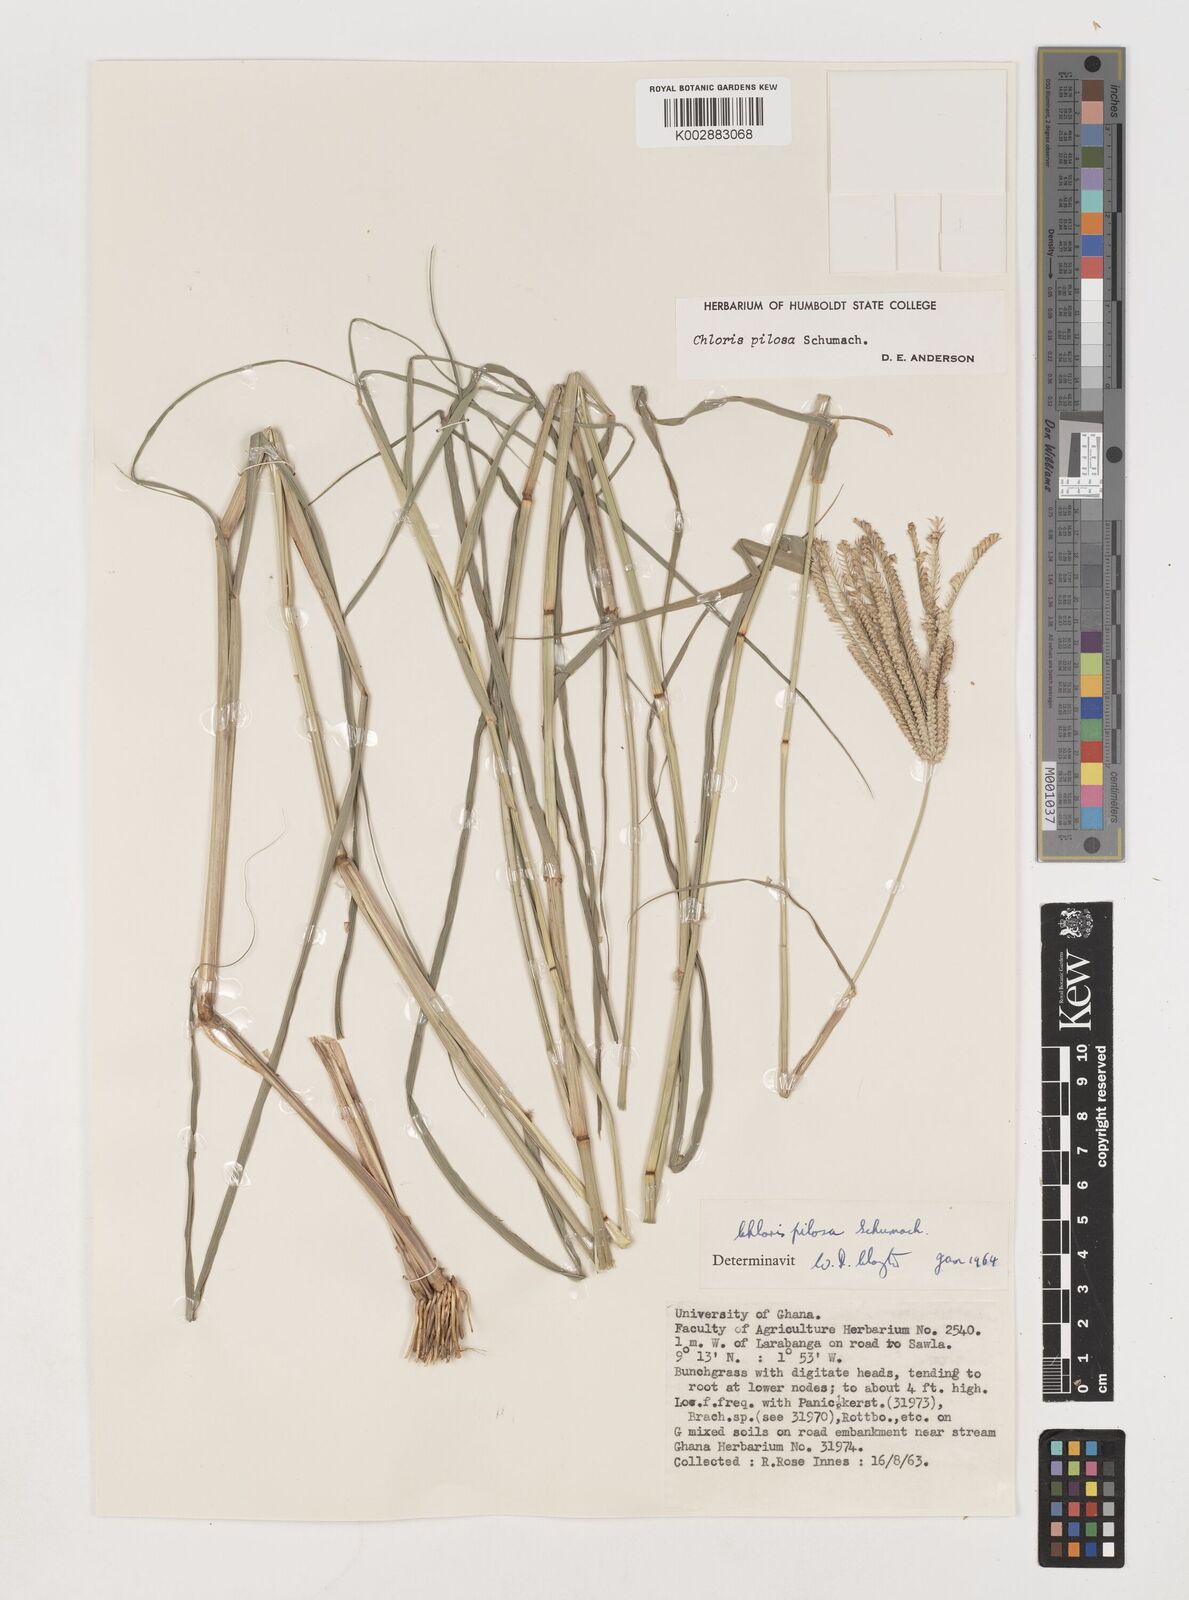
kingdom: Plantae
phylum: Tracheophyta
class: Liliopsida
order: Poales
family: Poaceae
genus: Chloris
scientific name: Chloris pilosa
